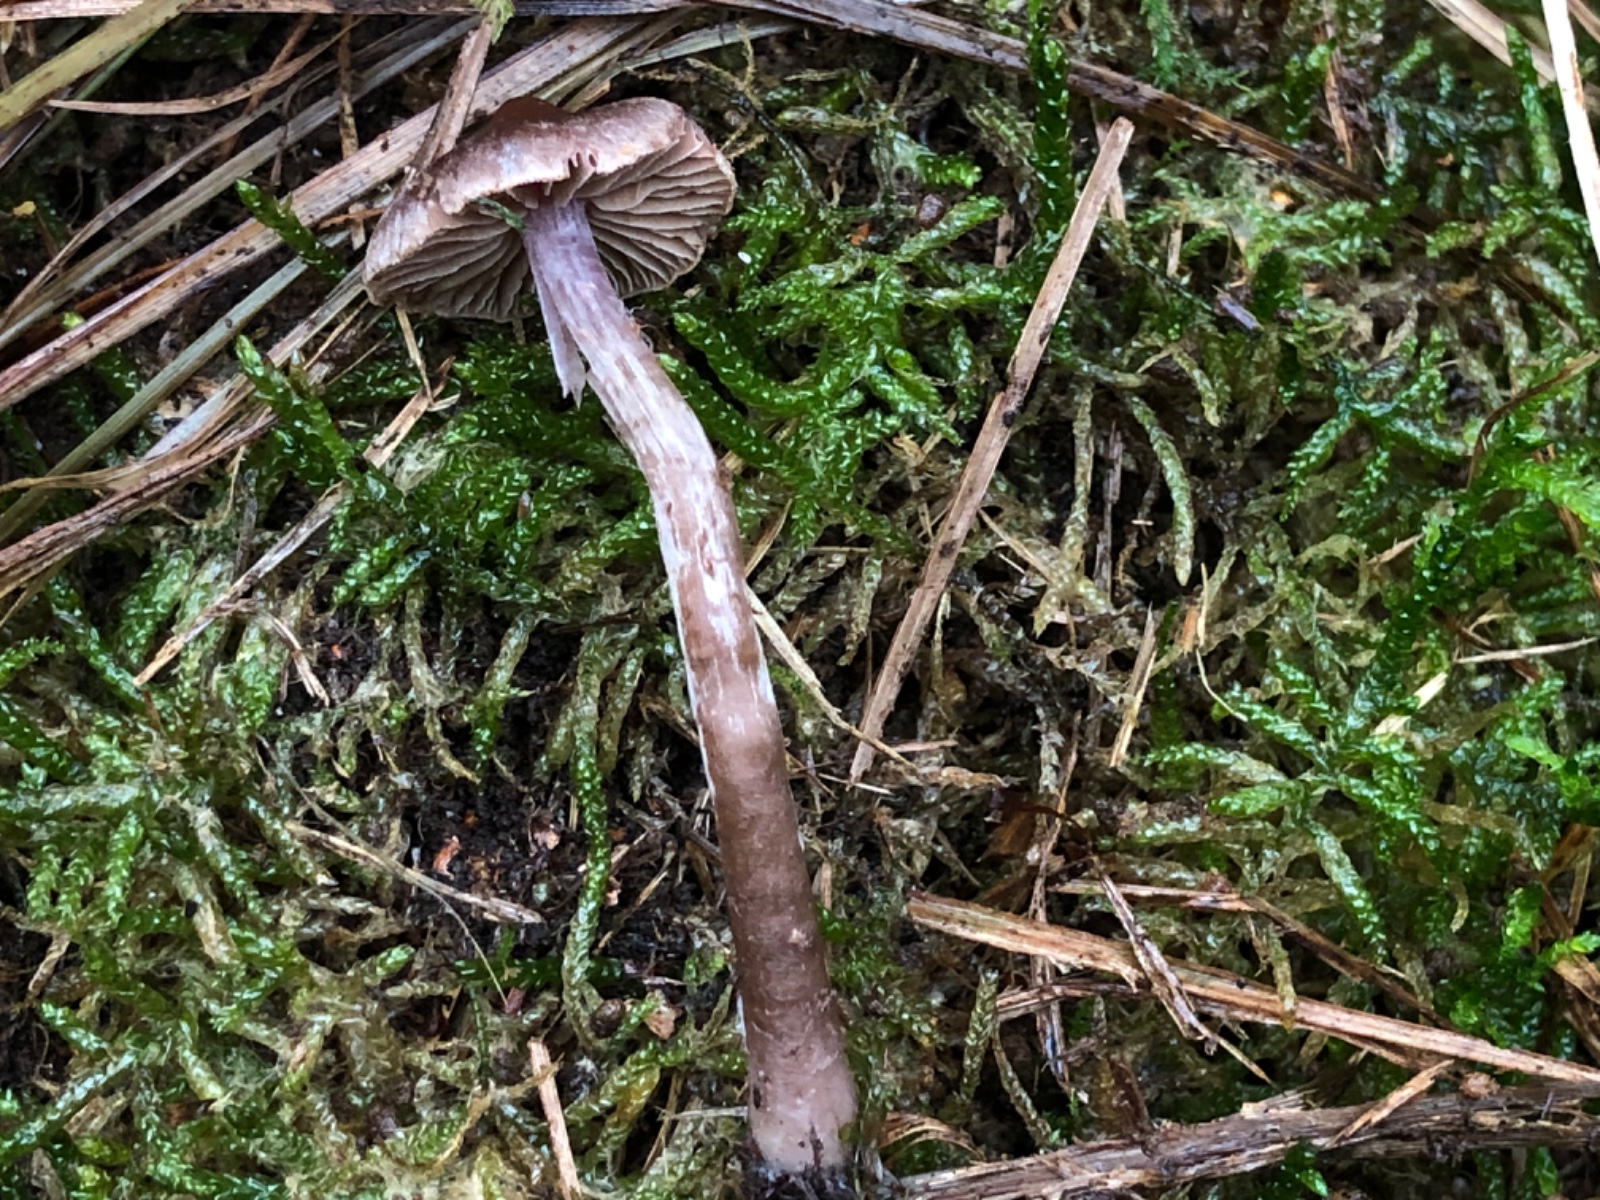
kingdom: Fungi
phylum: Basidiomycota
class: Agaricomycetes
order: Agaricales
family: Cortinariaceae
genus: Cortinarius
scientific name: Cortinarius
